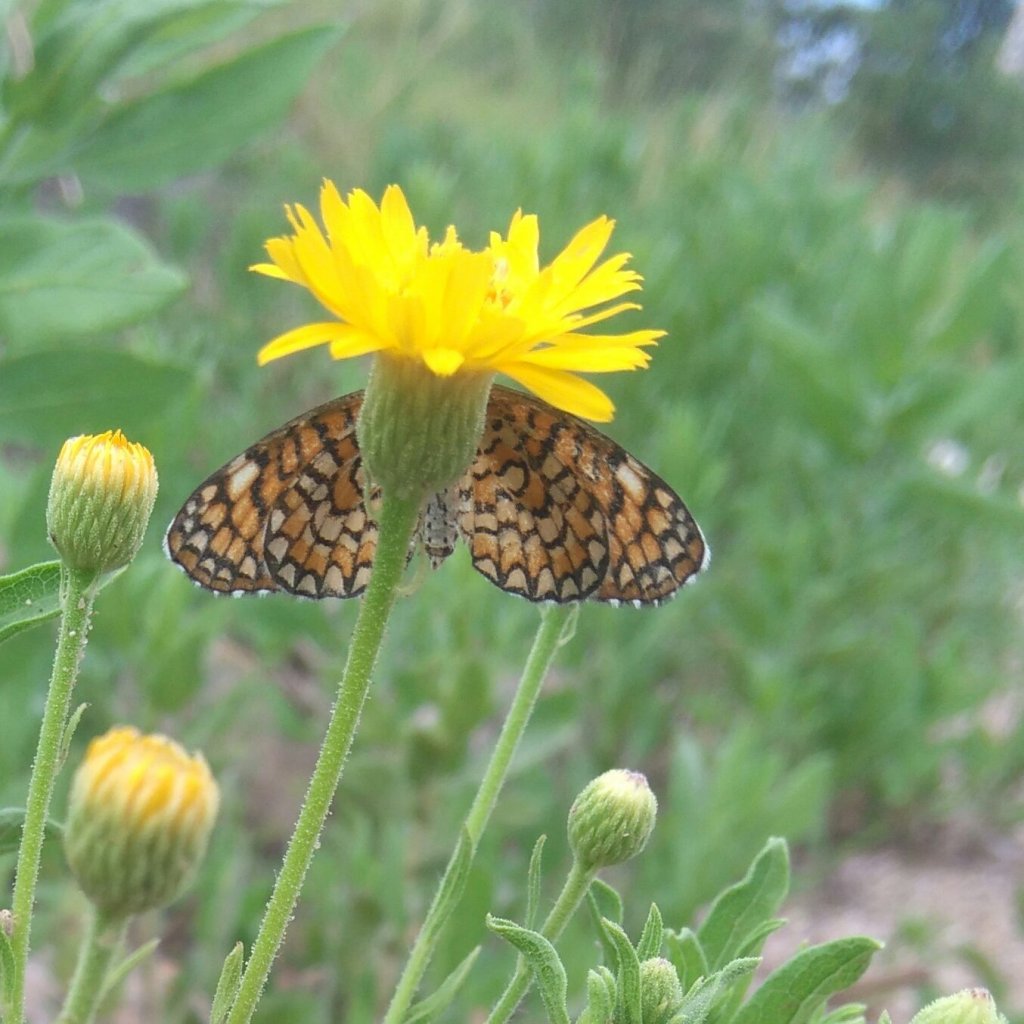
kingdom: Animalia
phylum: Arthropoda
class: Insecta
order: Lepidoptera
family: Nymphalidae
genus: Dymasia
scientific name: Dymasia dymas
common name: Tiny Checkerspot
